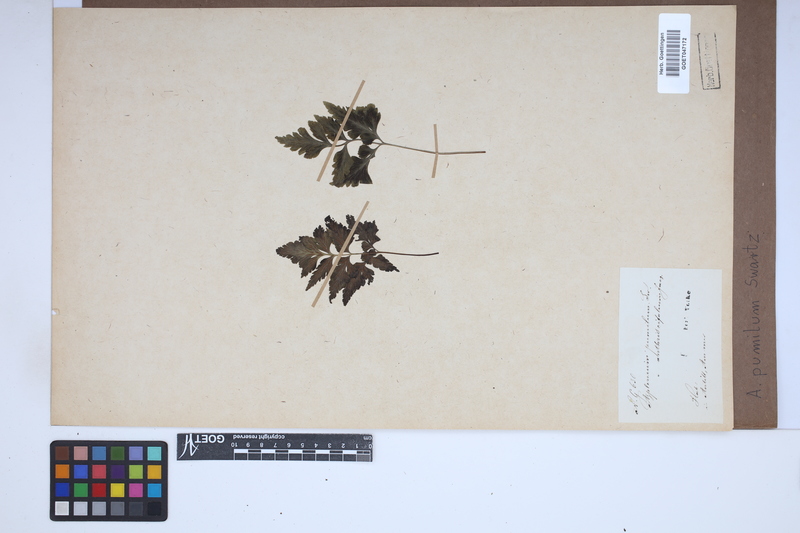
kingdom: Plantae
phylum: Tracheophyta
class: Polypodiopsida
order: Polypodiales
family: Aspleniaceae
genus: Asplenium
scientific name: Asplenium pumilum
